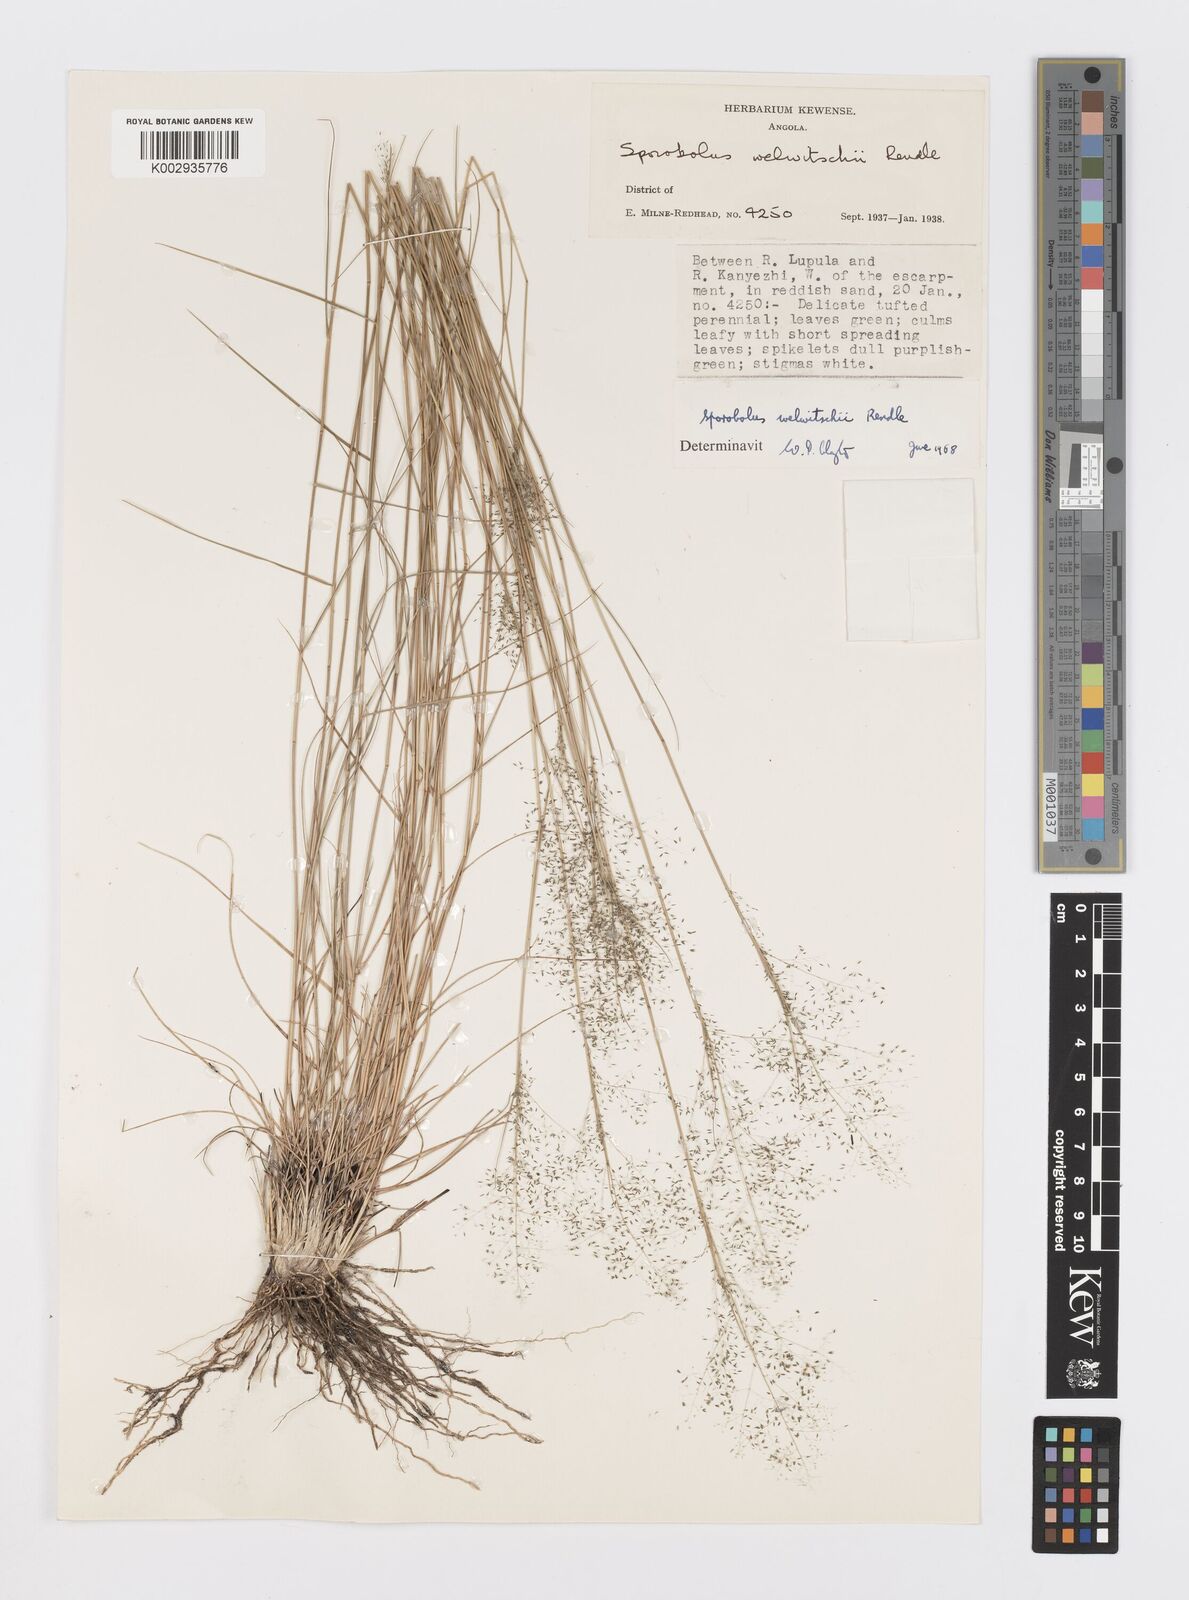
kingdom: Plantae
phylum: Tracheophyta
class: Liliopsida
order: Poales
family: Poaceae
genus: Sporobolus
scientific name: Sporobolus welwitschii
